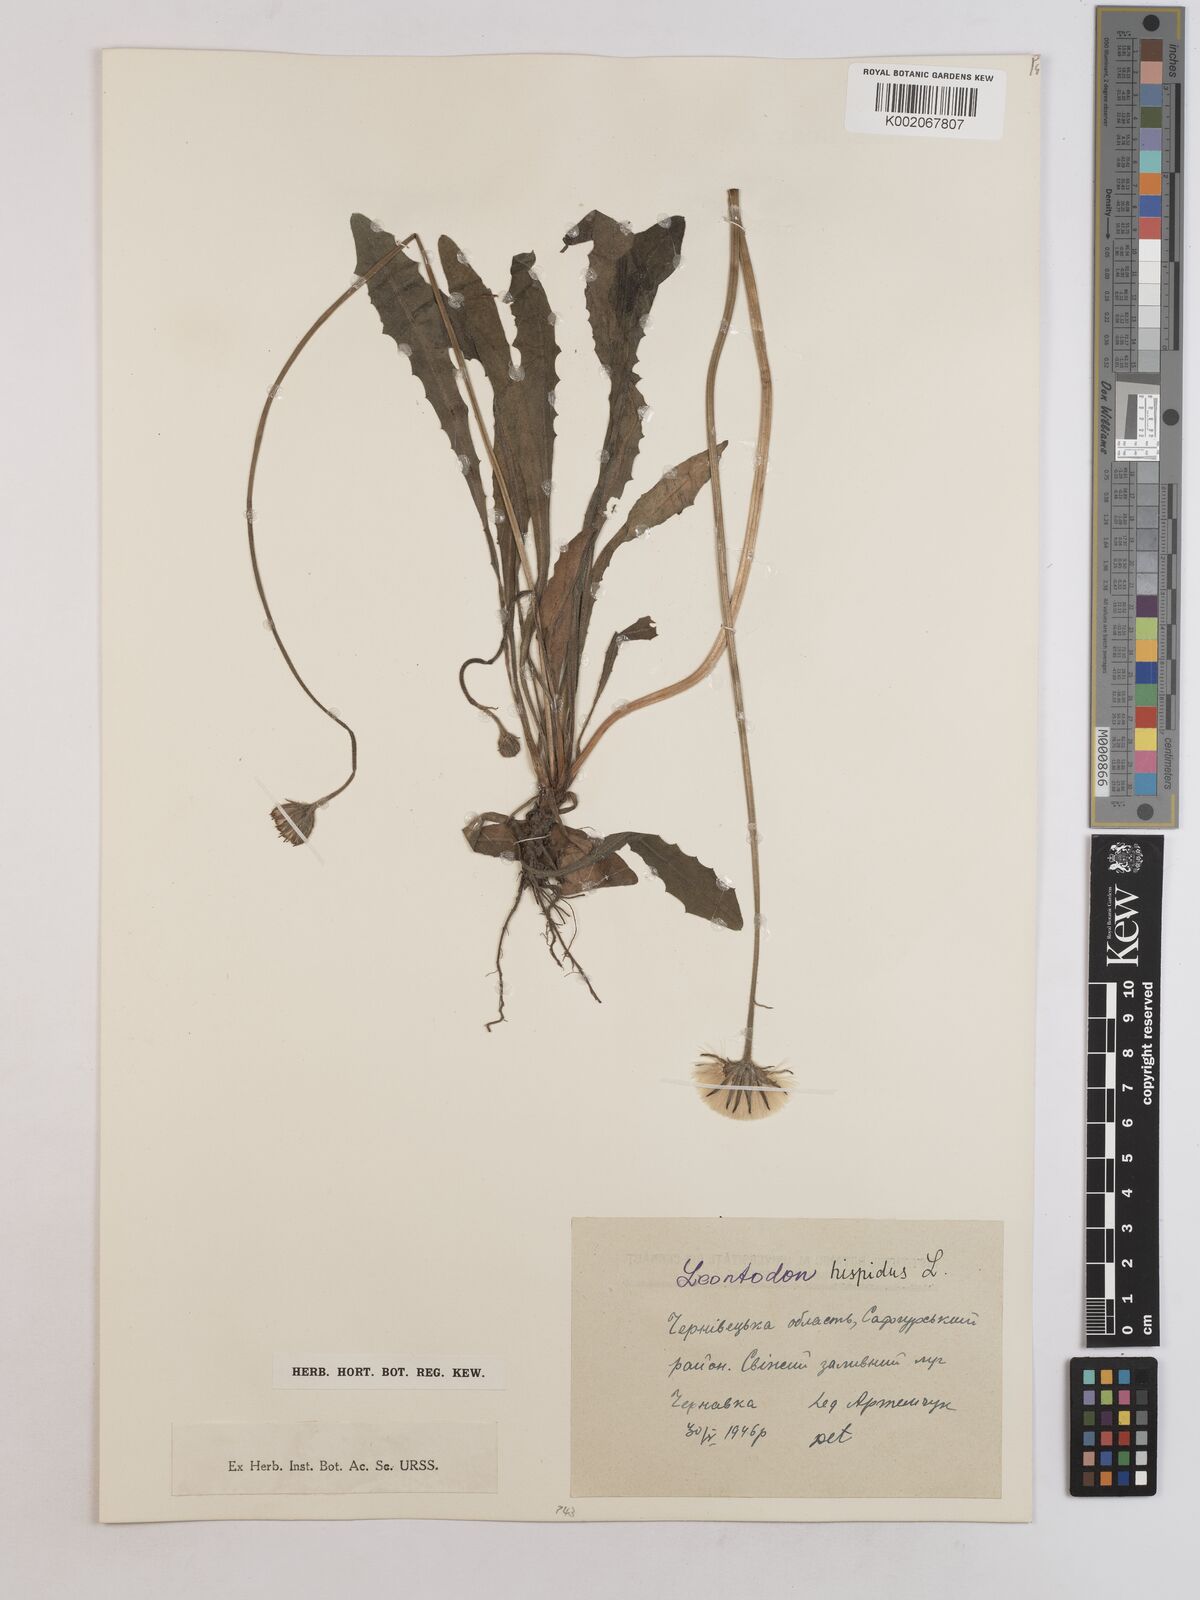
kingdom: Plantae
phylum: Tracheophyta
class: Magnoliopsida
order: Asterales
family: Asteraceae
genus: Leontodon
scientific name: Leontodon hispidus
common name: Rough hawkbit
